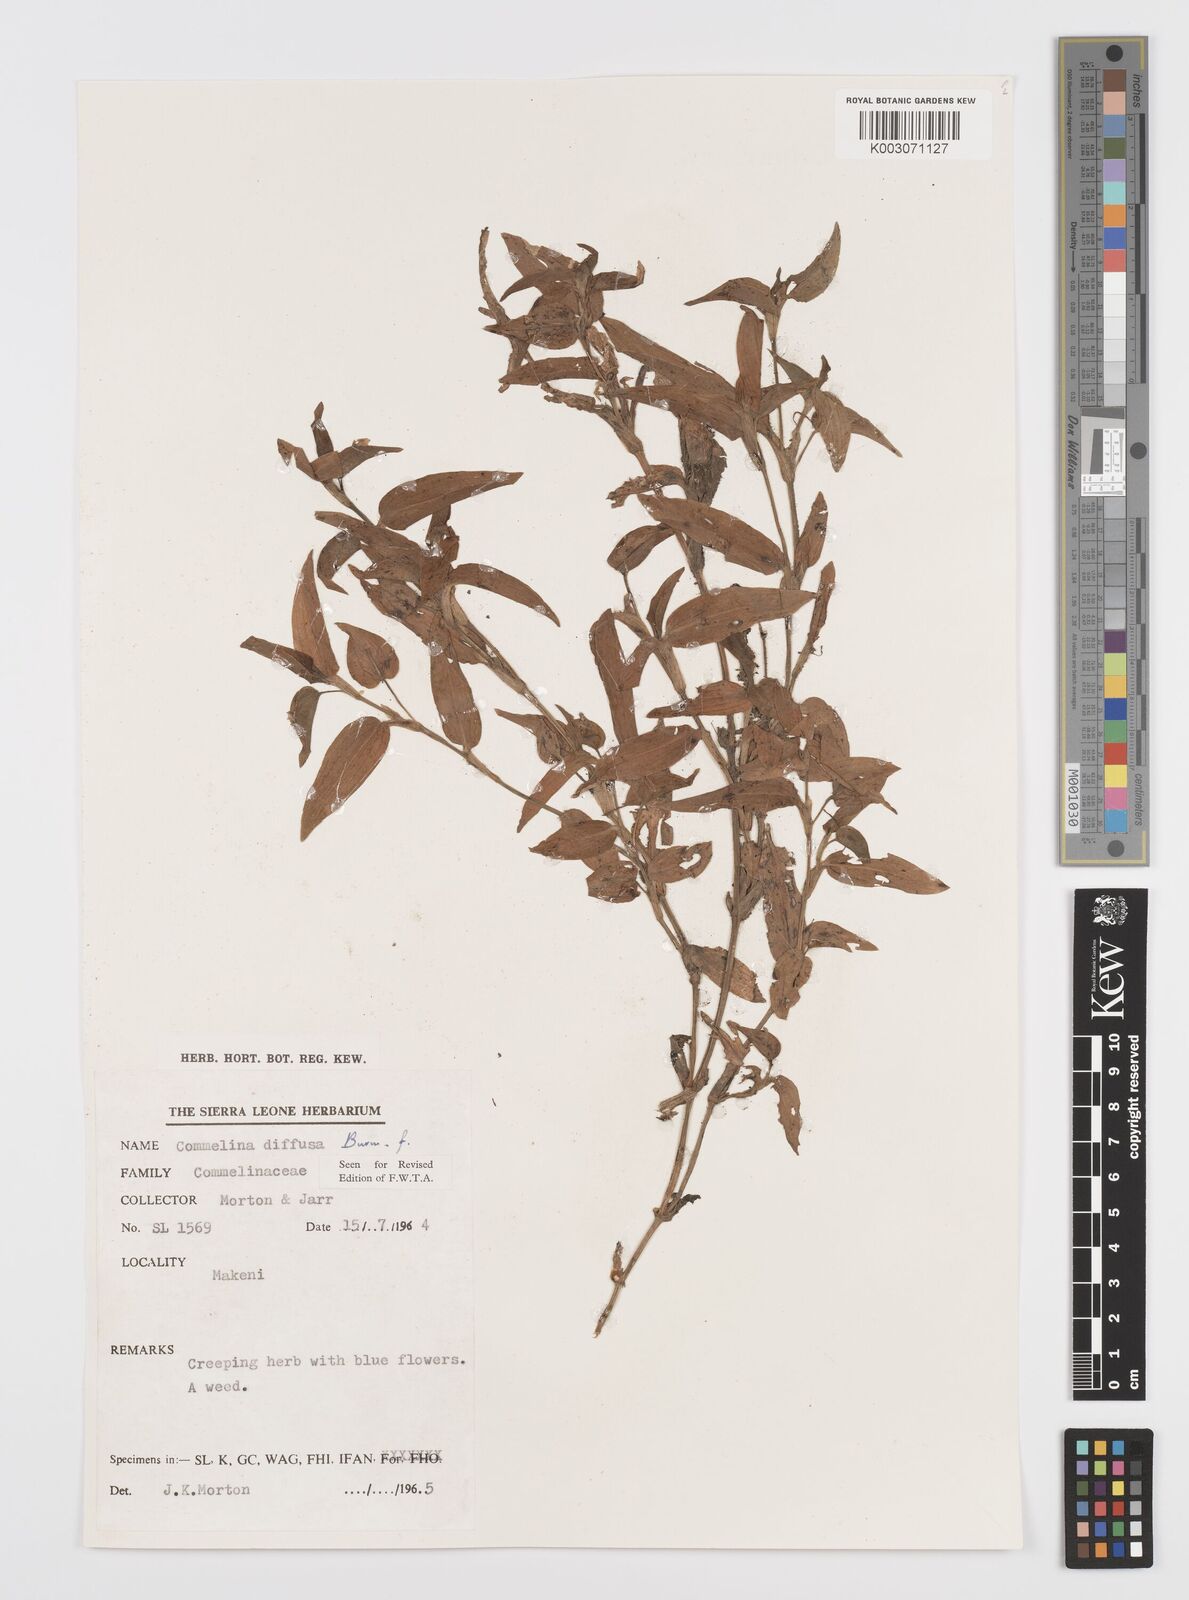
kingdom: Plantae
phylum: Tracheophyta
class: Liliopsida
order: Commelinales
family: Commelinaceae
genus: Commelina
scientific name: Commelina diffusa
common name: Climbing dayflower
